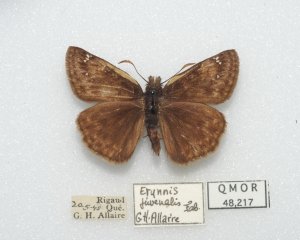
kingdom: Animalia
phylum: Arthropoda
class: Insecta
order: Lepidoptera
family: Hesperiidae
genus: Gesta
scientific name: Gesta
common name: Juvenal's Duskywing
